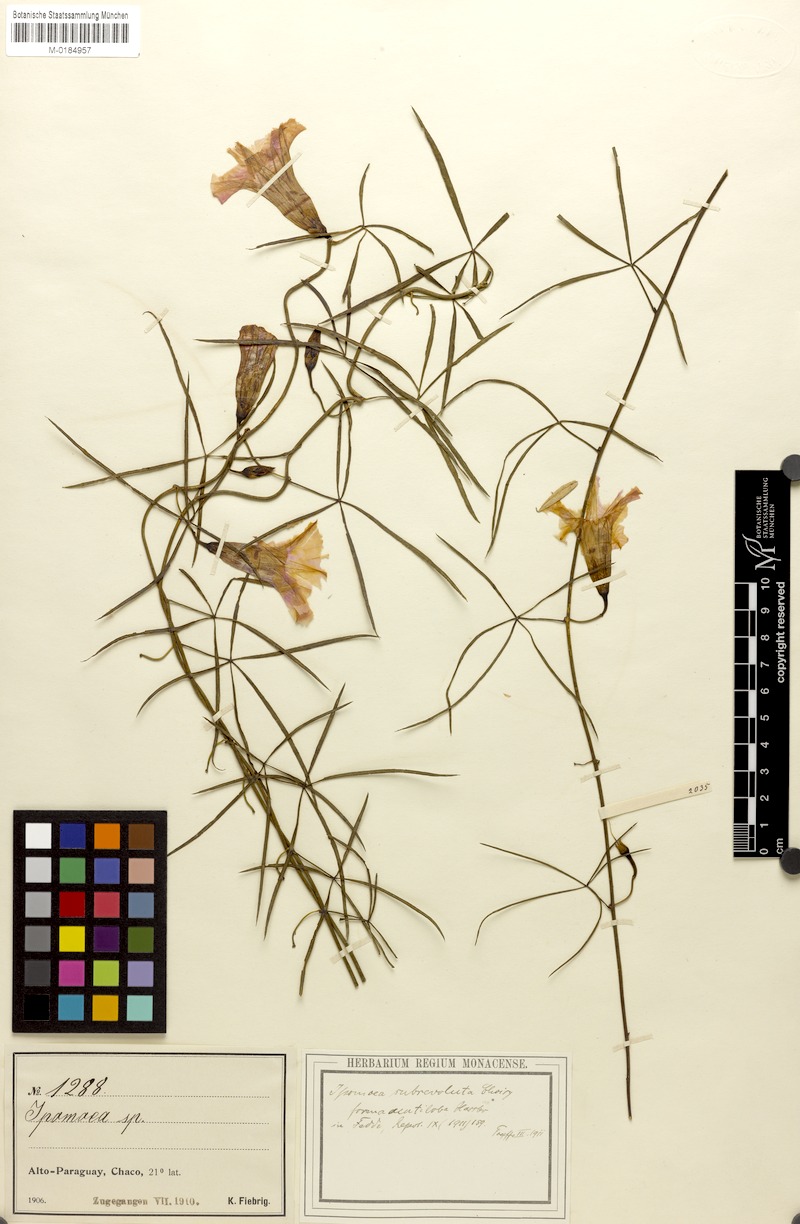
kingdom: Plantae
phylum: Tracheophyta
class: Magnoliopsida
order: Solanales
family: Convolvulaceae
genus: Ipomoea
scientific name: Ipomoea subrevoluta
